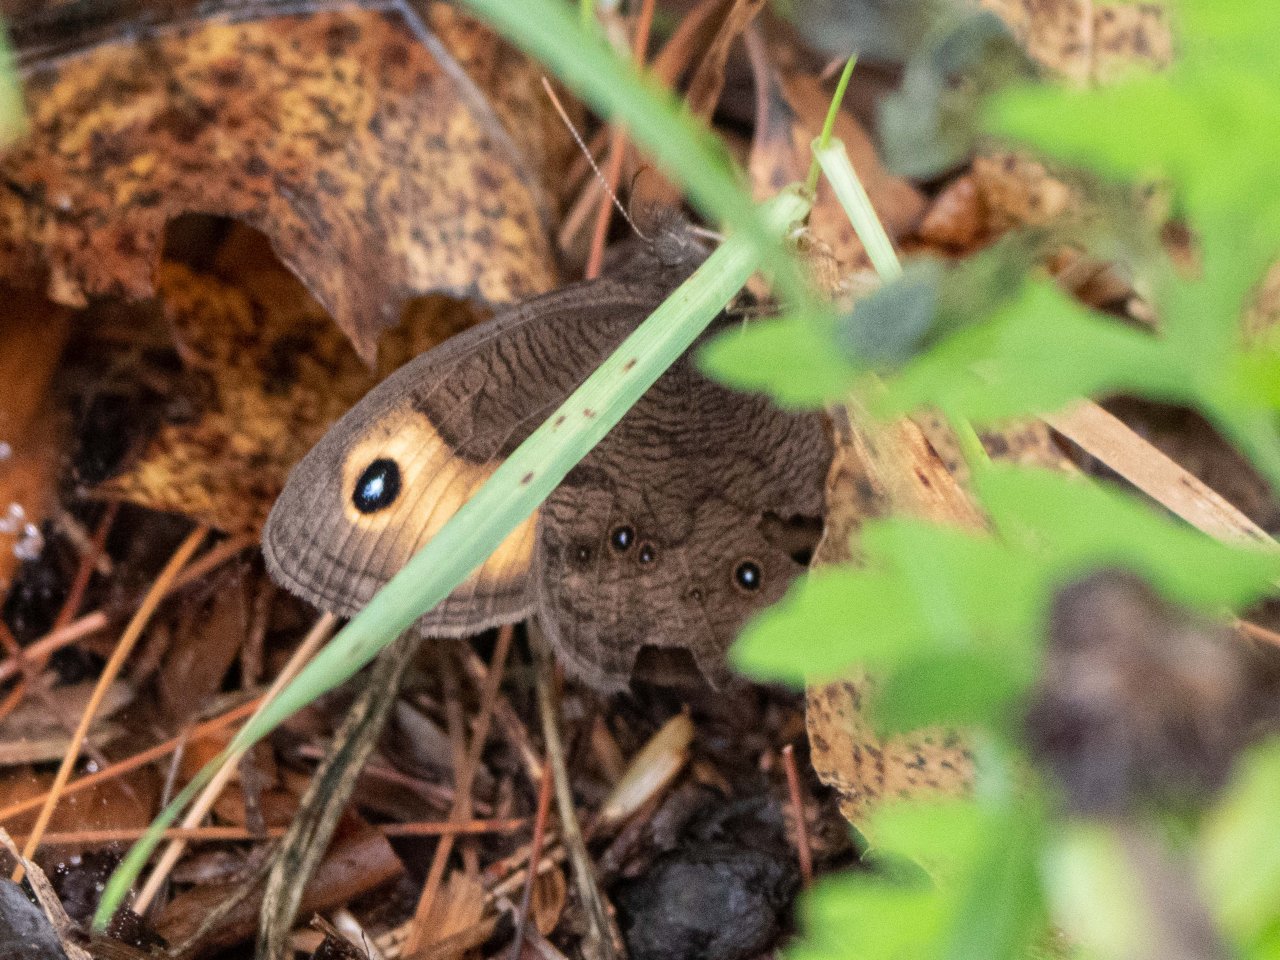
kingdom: Animalia
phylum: Arthropoda
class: Insecta
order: Lepidoptera
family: Nymphalidae
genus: Cercyonis
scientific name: Cercyonis pegala
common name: Common Wood-Nymph
